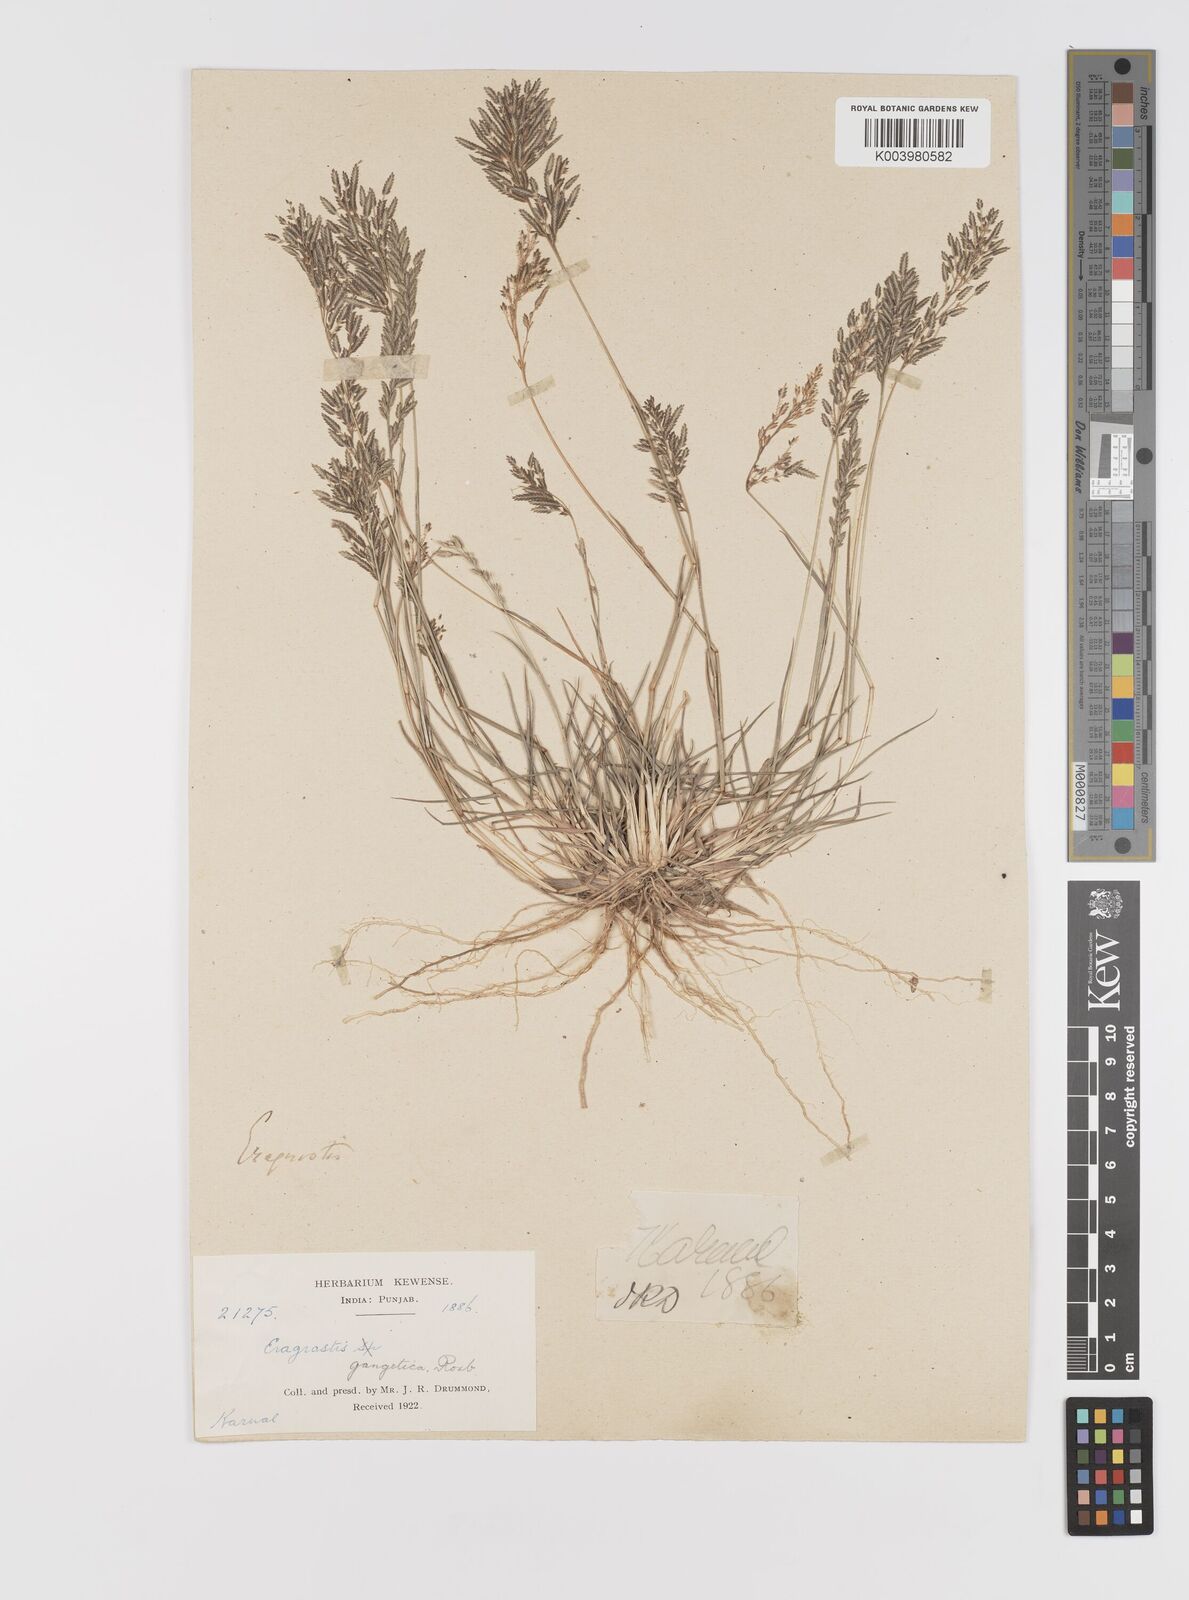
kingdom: Plantae
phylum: Tracheophyta
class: Liliopsida
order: Poales
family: Poaceae
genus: Eragrostis
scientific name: Eragrostis atrovirens
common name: Thalia lovegrass
